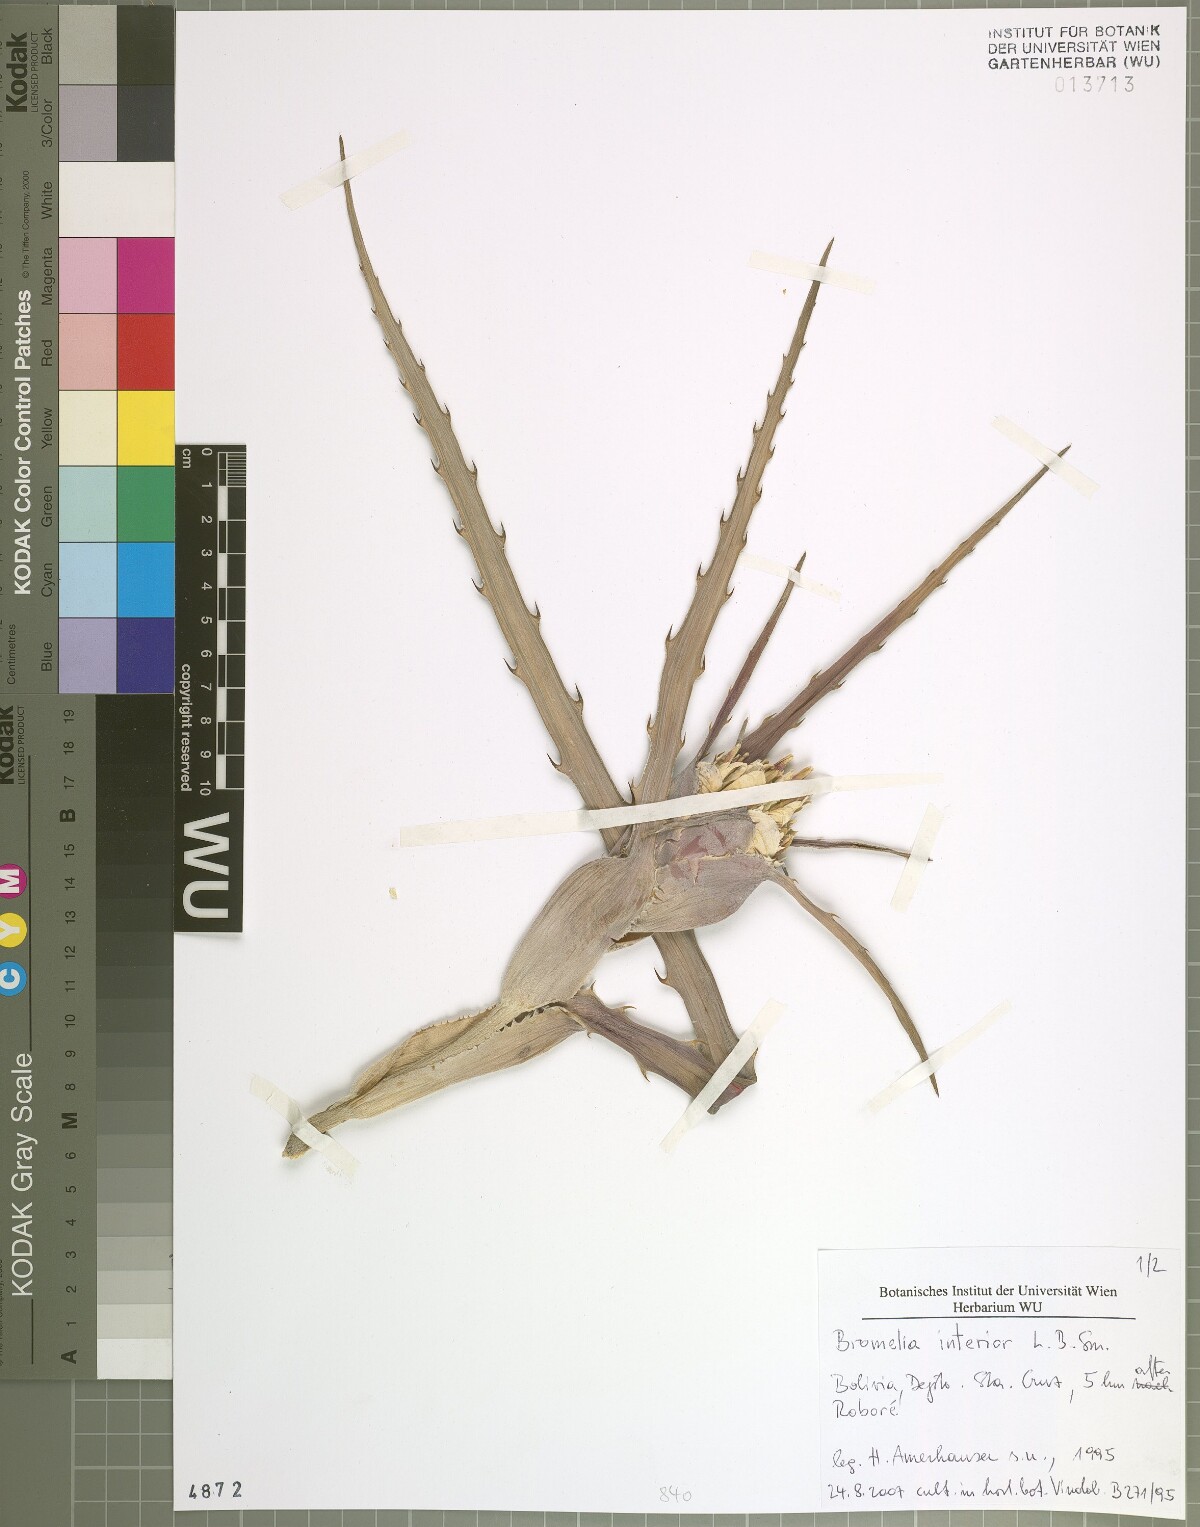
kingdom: Plantae
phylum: Tracheophyta
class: Liliopsida
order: Poales
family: Bromeliaceae
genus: Bromelia
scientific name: Bromelia serra
